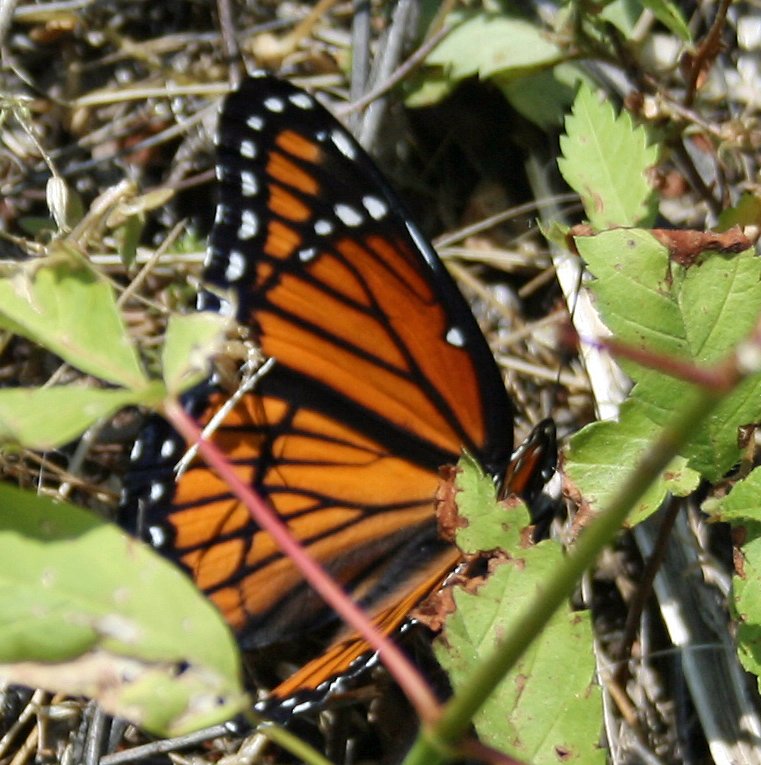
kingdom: Animalia
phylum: Arthropoda
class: Insecta
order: Lepidoptera
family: Nymphalidae
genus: Limenitis
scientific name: Limenitis archippus
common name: Viceroy
